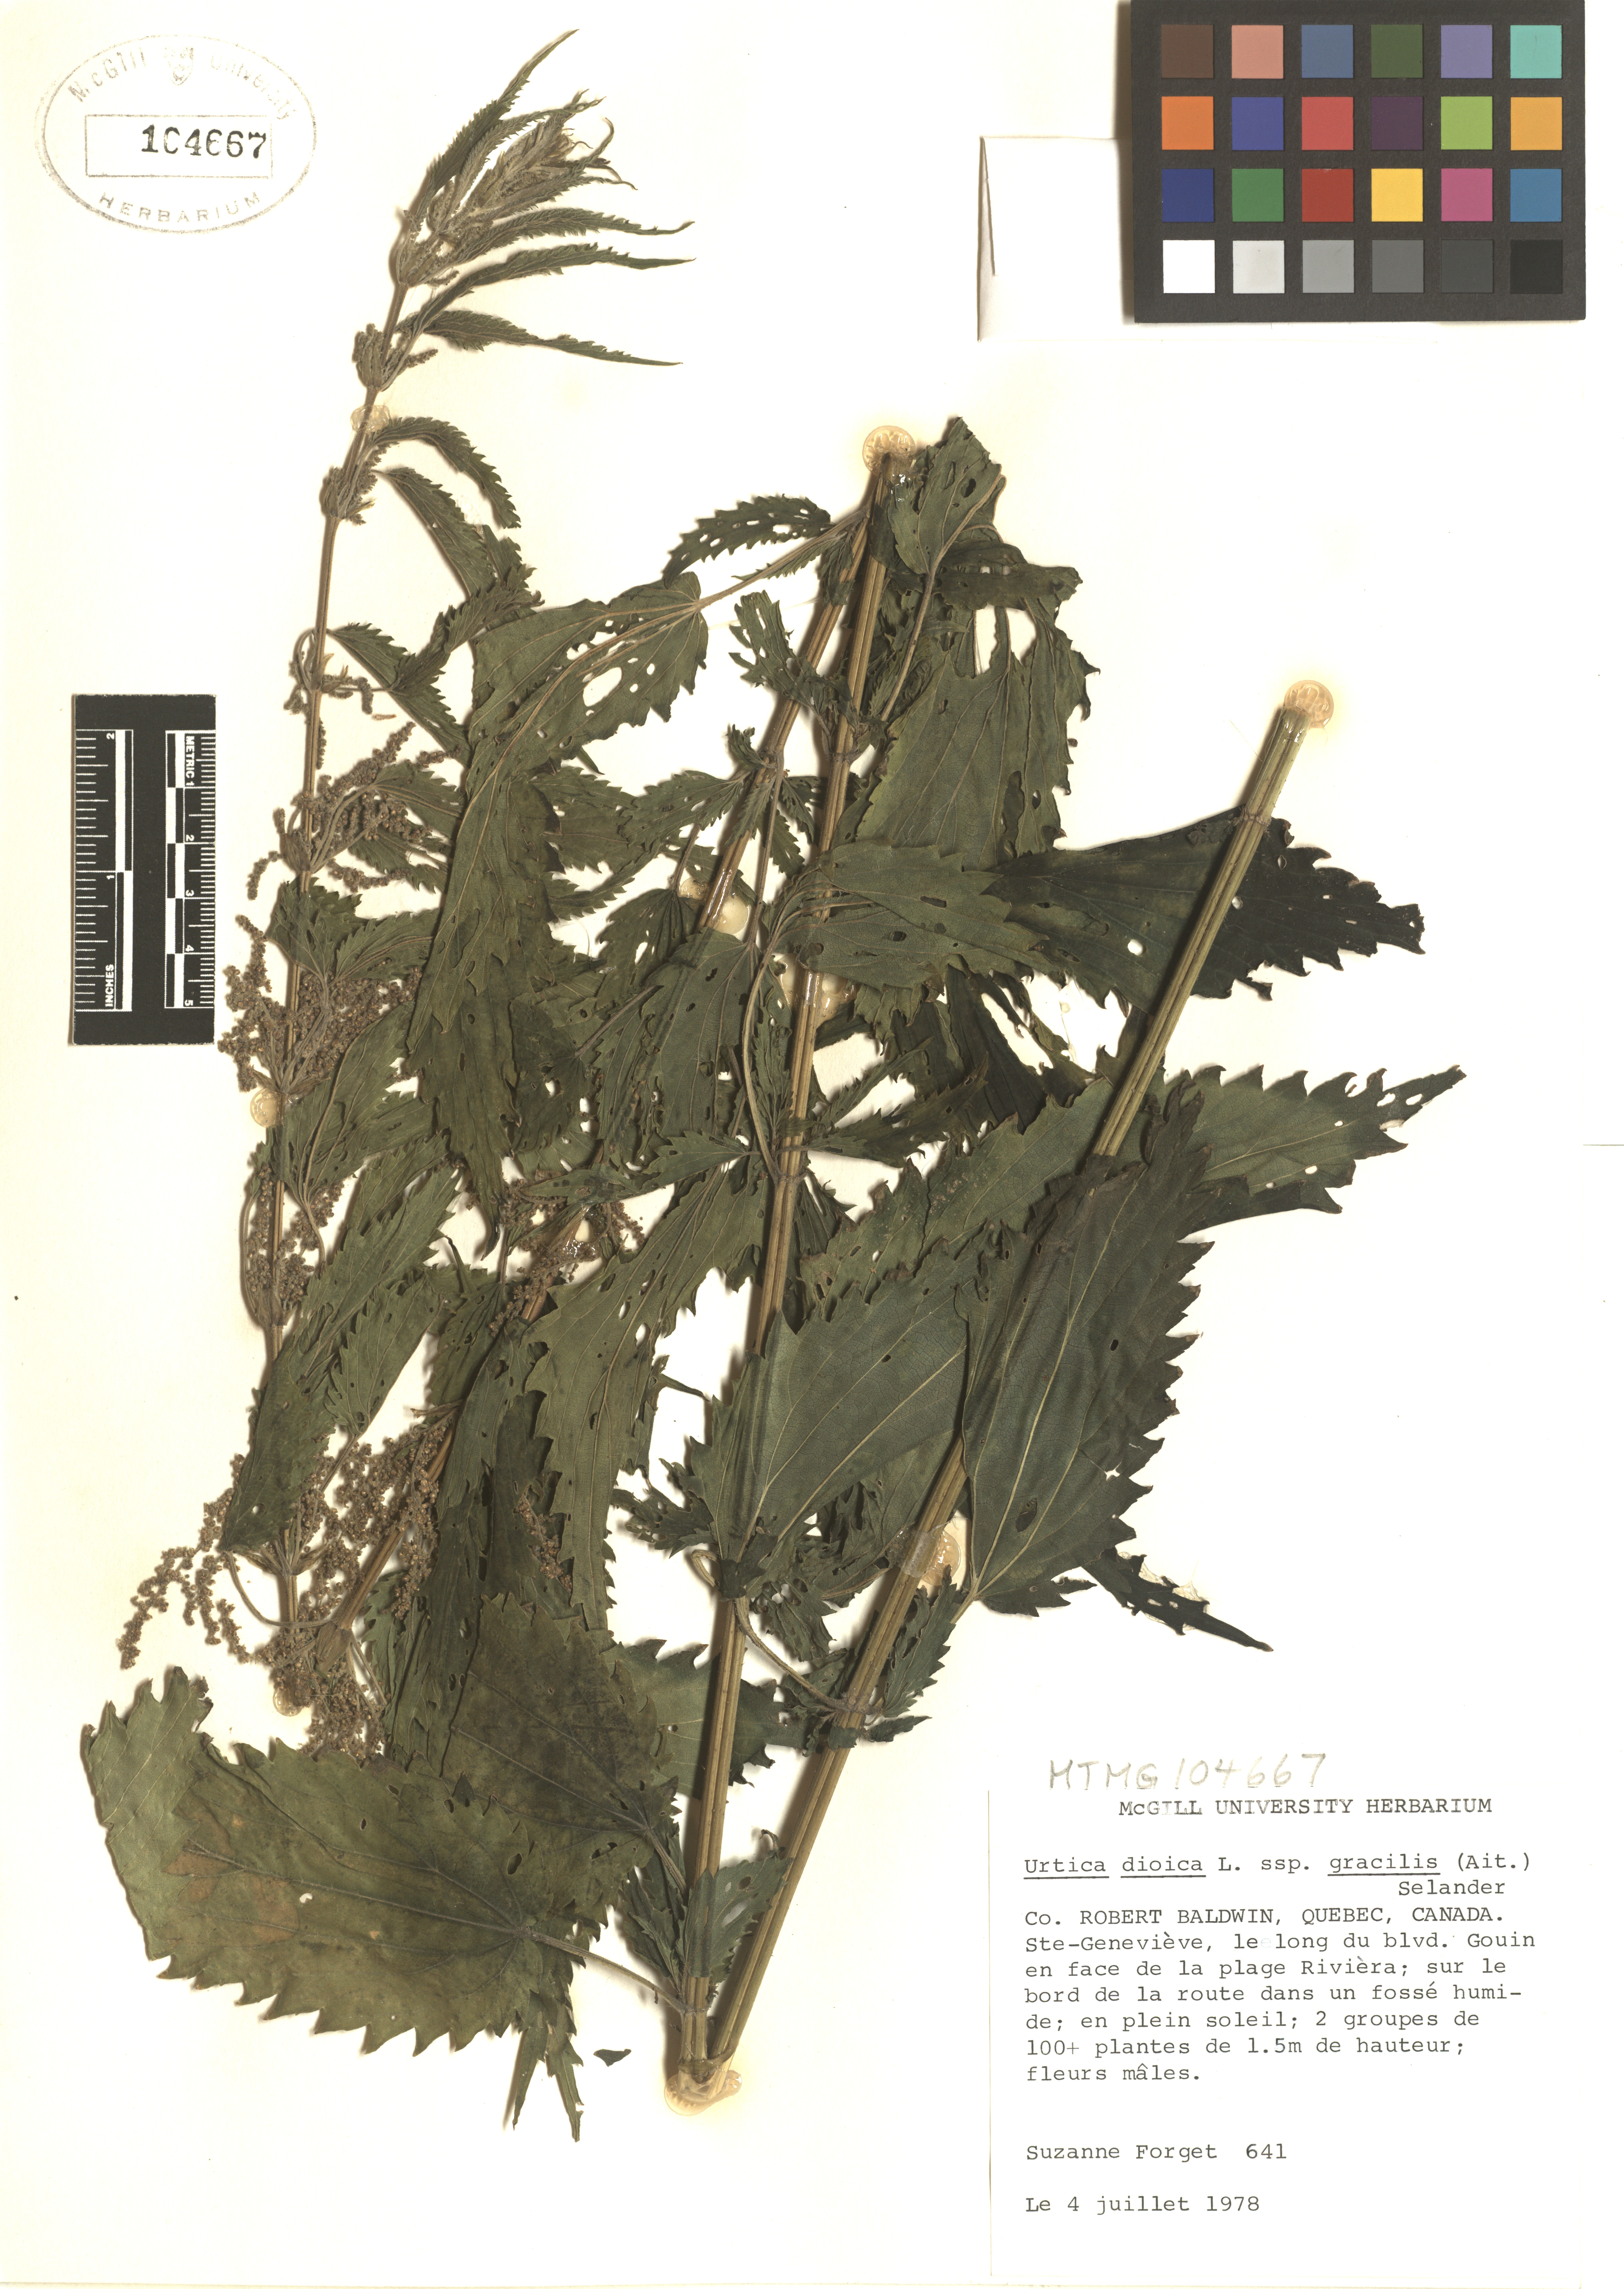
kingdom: Plantae
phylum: Tracheophyta
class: Magnoliopsida
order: Rosales
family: Urticaceae
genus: Urtica
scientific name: Urtica gracilis
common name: Slender stinging nettle
